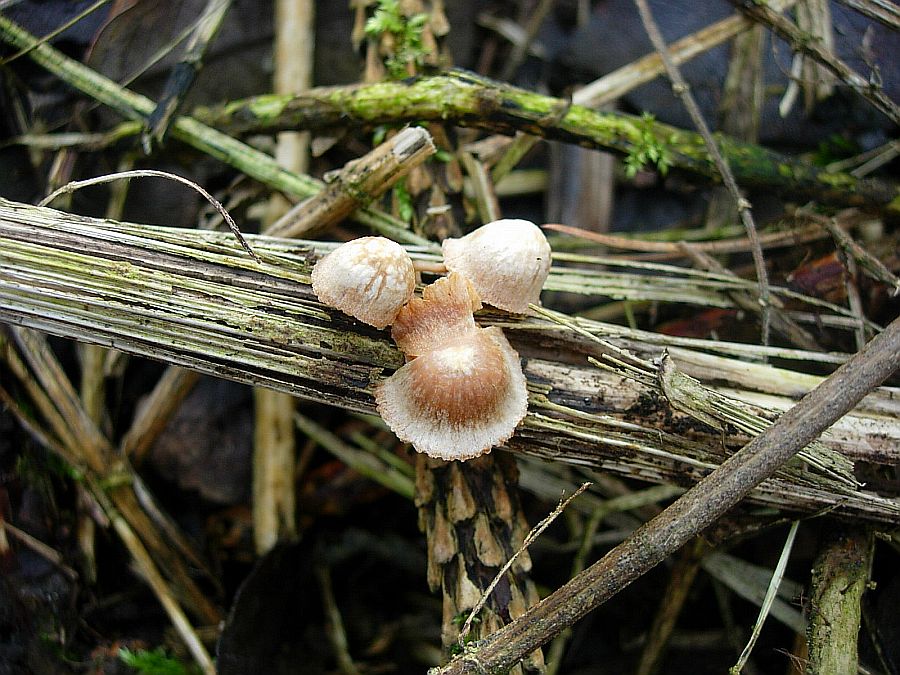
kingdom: Fungi
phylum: Basidiomycota
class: Agaricomycetes
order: Agaricales
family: Tubariaceae
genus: Tubaria
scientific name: Tubaria furfuracea
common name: kliddet fnughat
